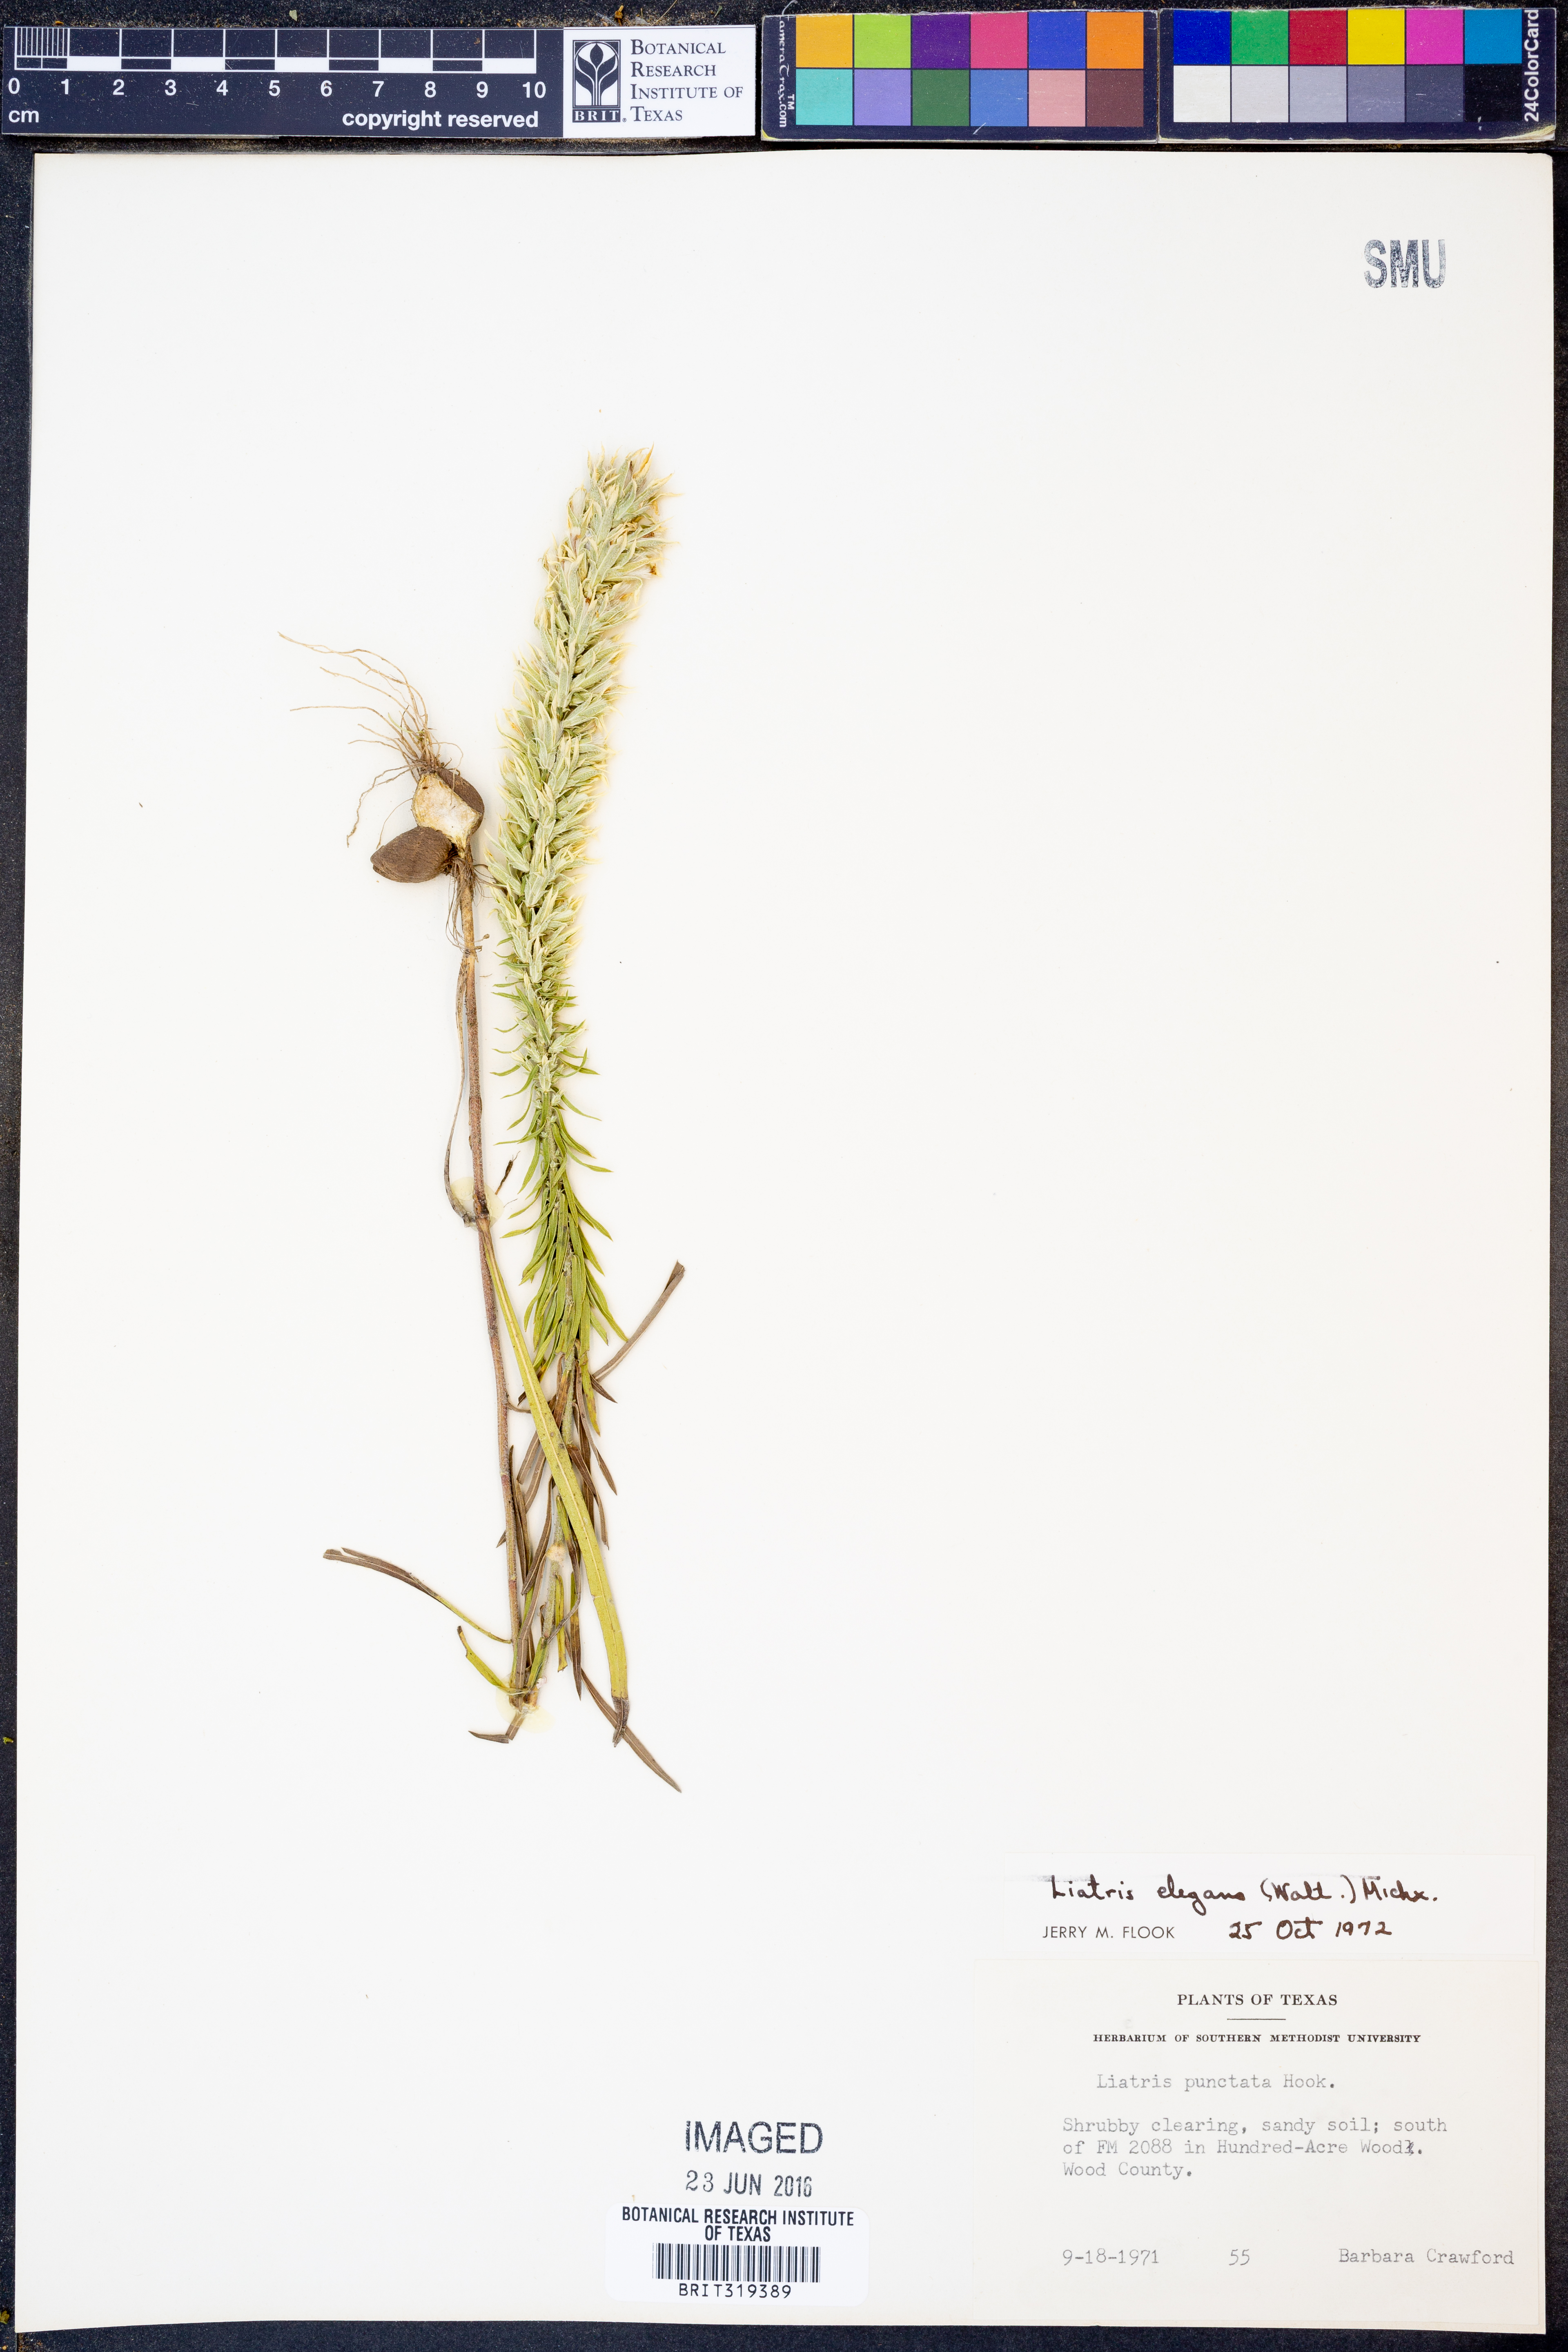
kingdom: Plantae
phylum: Tracheophyta
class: Magnoliopsida
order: Asterales
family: Asteraceae
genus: Liatris
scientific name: Liatris elegans
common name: Pinkscale gayfeather
